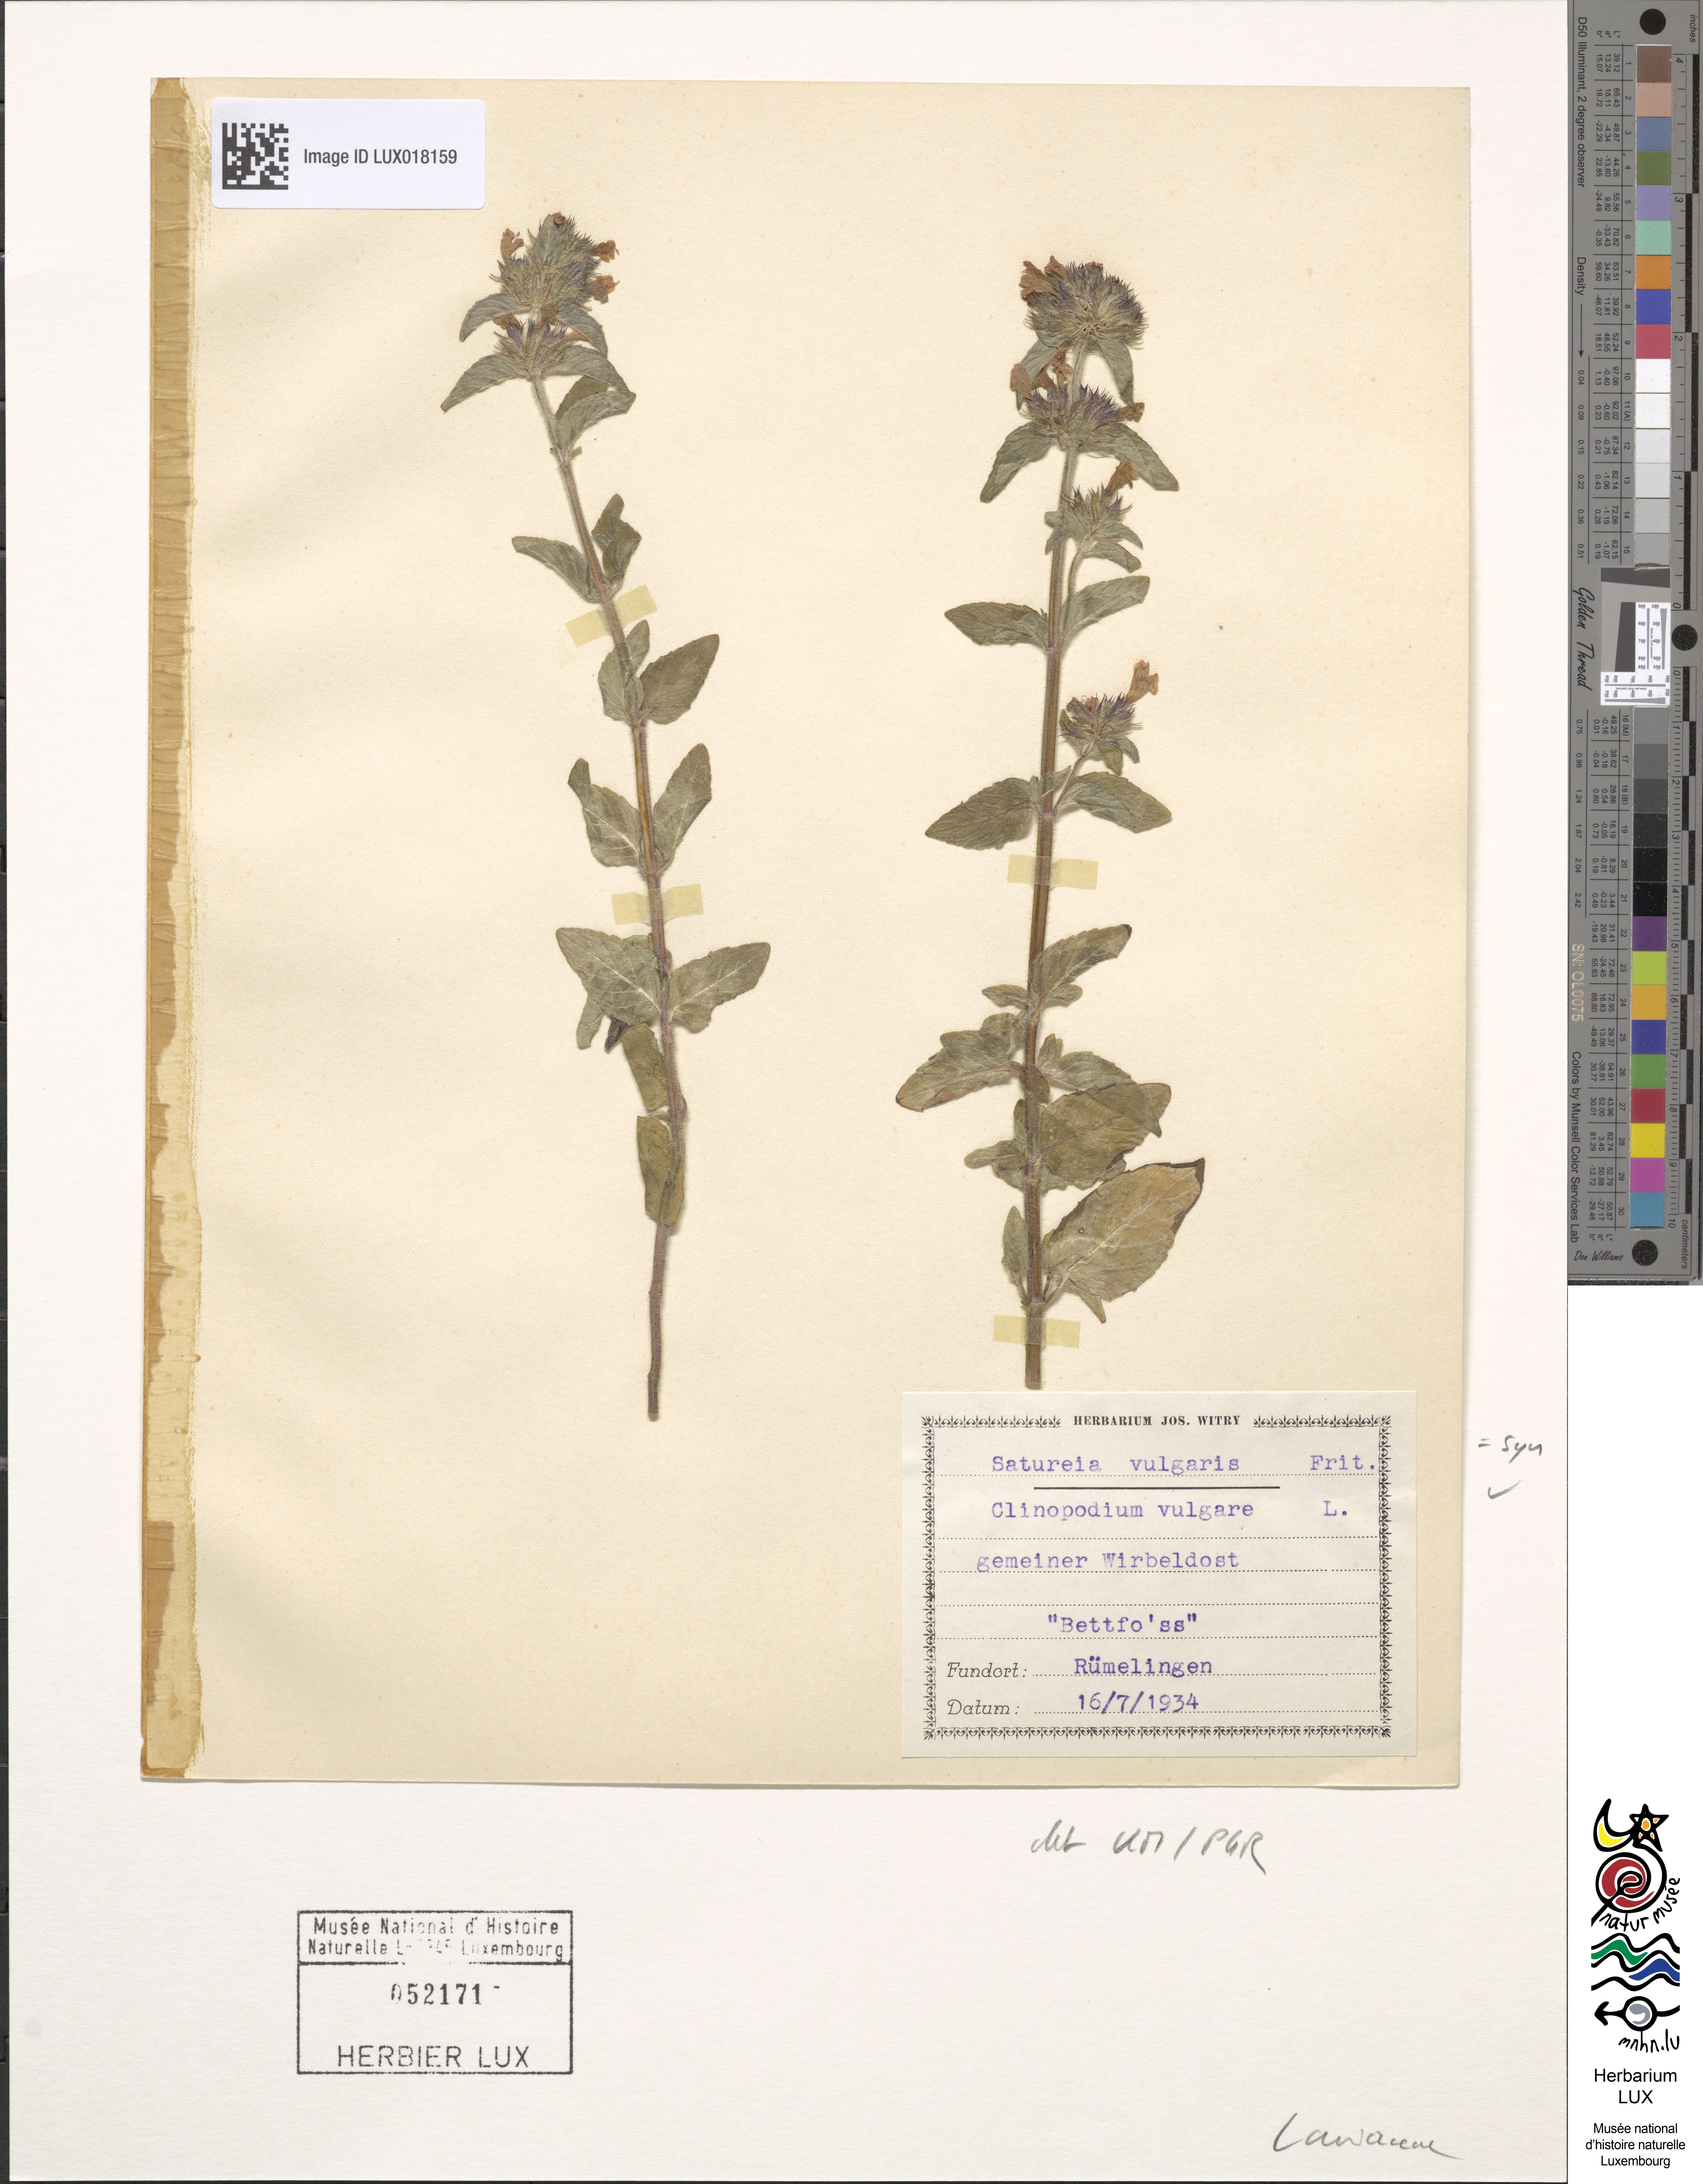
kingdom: Plantae
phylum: Tracheophyta
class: Magnoliopsida
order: Lamiales
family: Lamiaceae
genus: Clinopodium
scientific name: Clinopodium vulgare
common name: Wild basil
